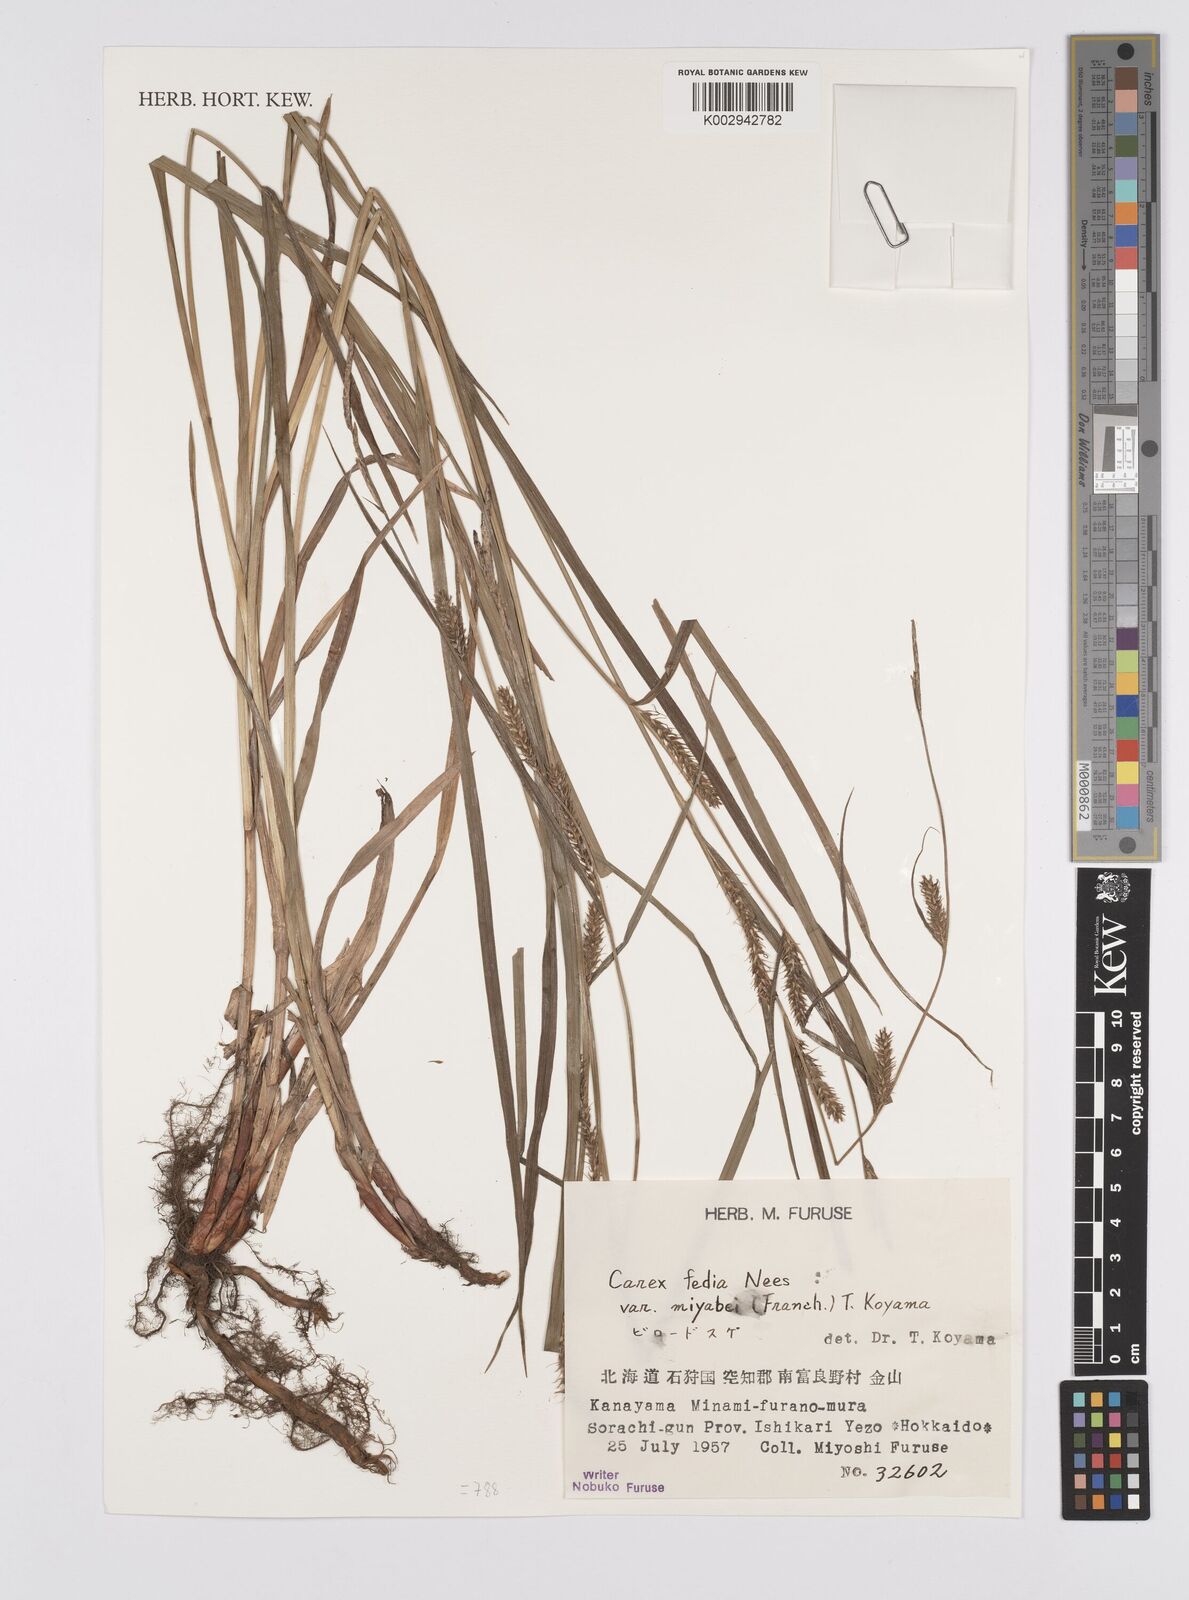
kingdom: Plantae
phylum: Tracheophyta
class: Liliopsida
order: Poales
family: Cyperaceae
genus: Carex
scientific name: Carex fedia
